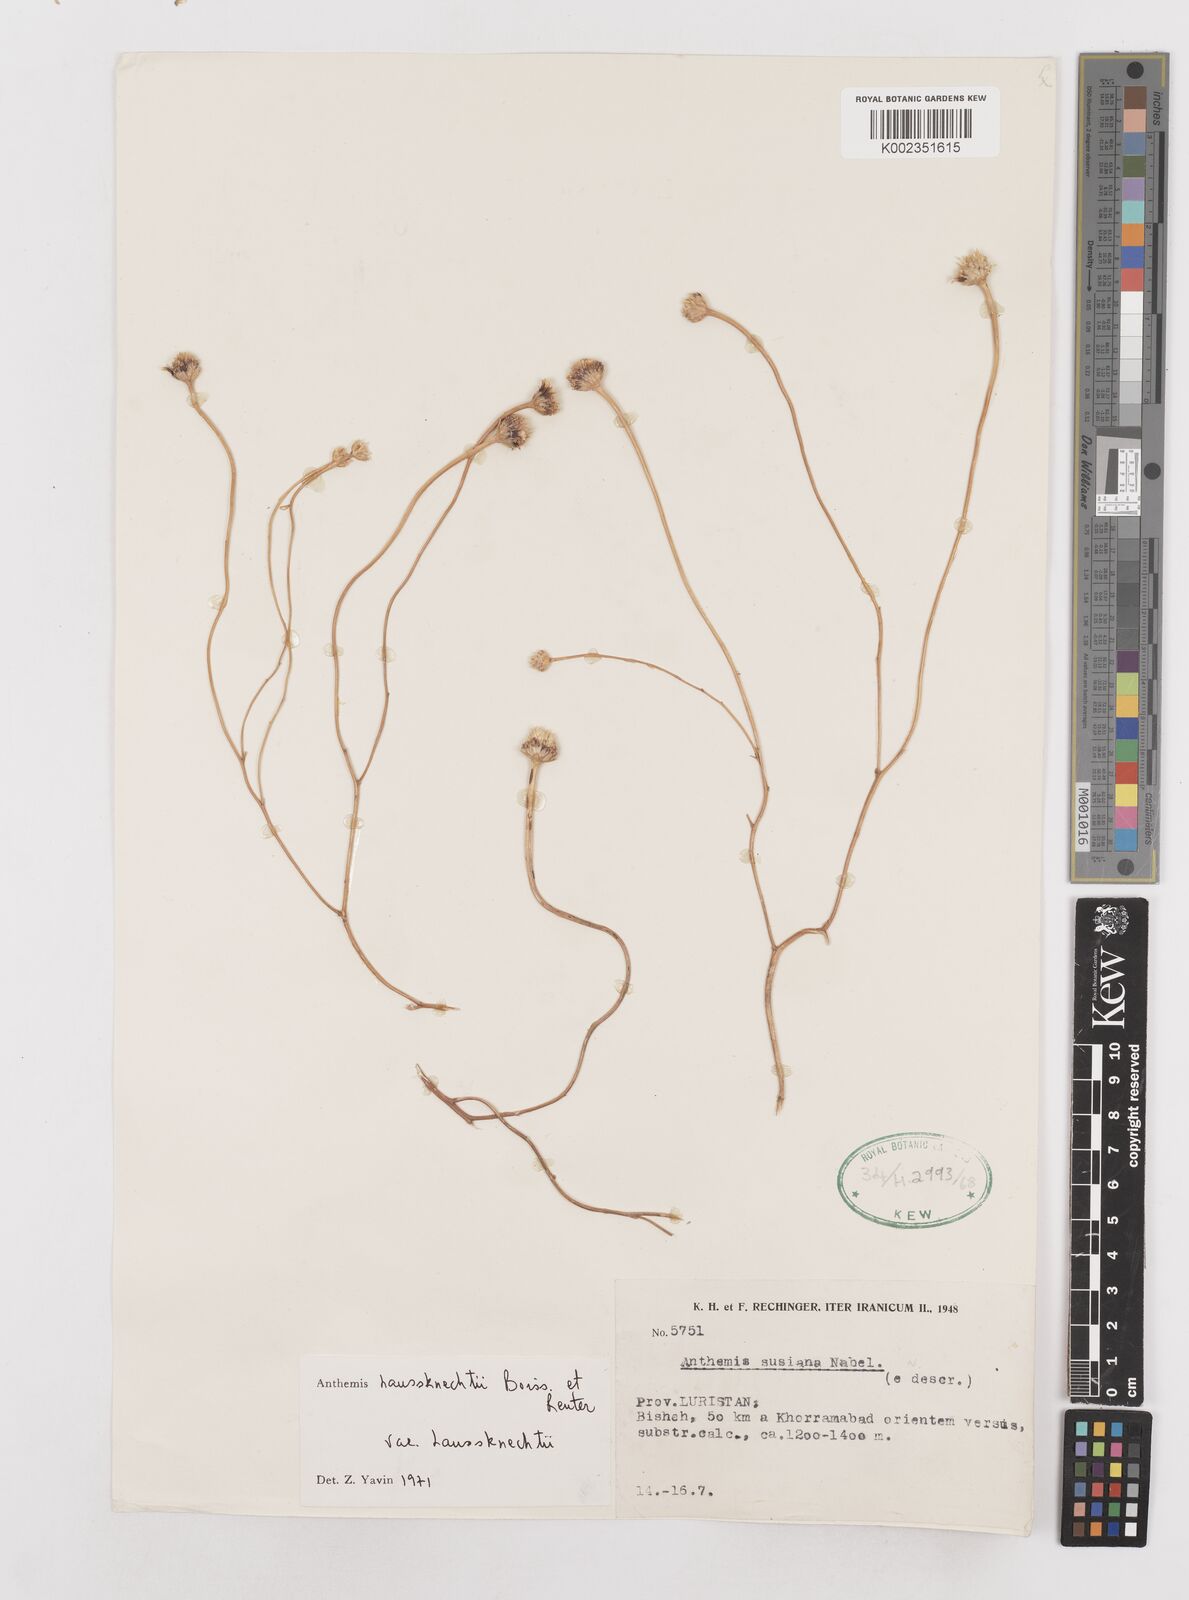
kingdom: Plantae
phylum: Tracheophyta
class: Magnoliopsida
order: Asterales
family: Asteraceae
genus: Anthemis
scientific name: Anthemis haussknechtii
